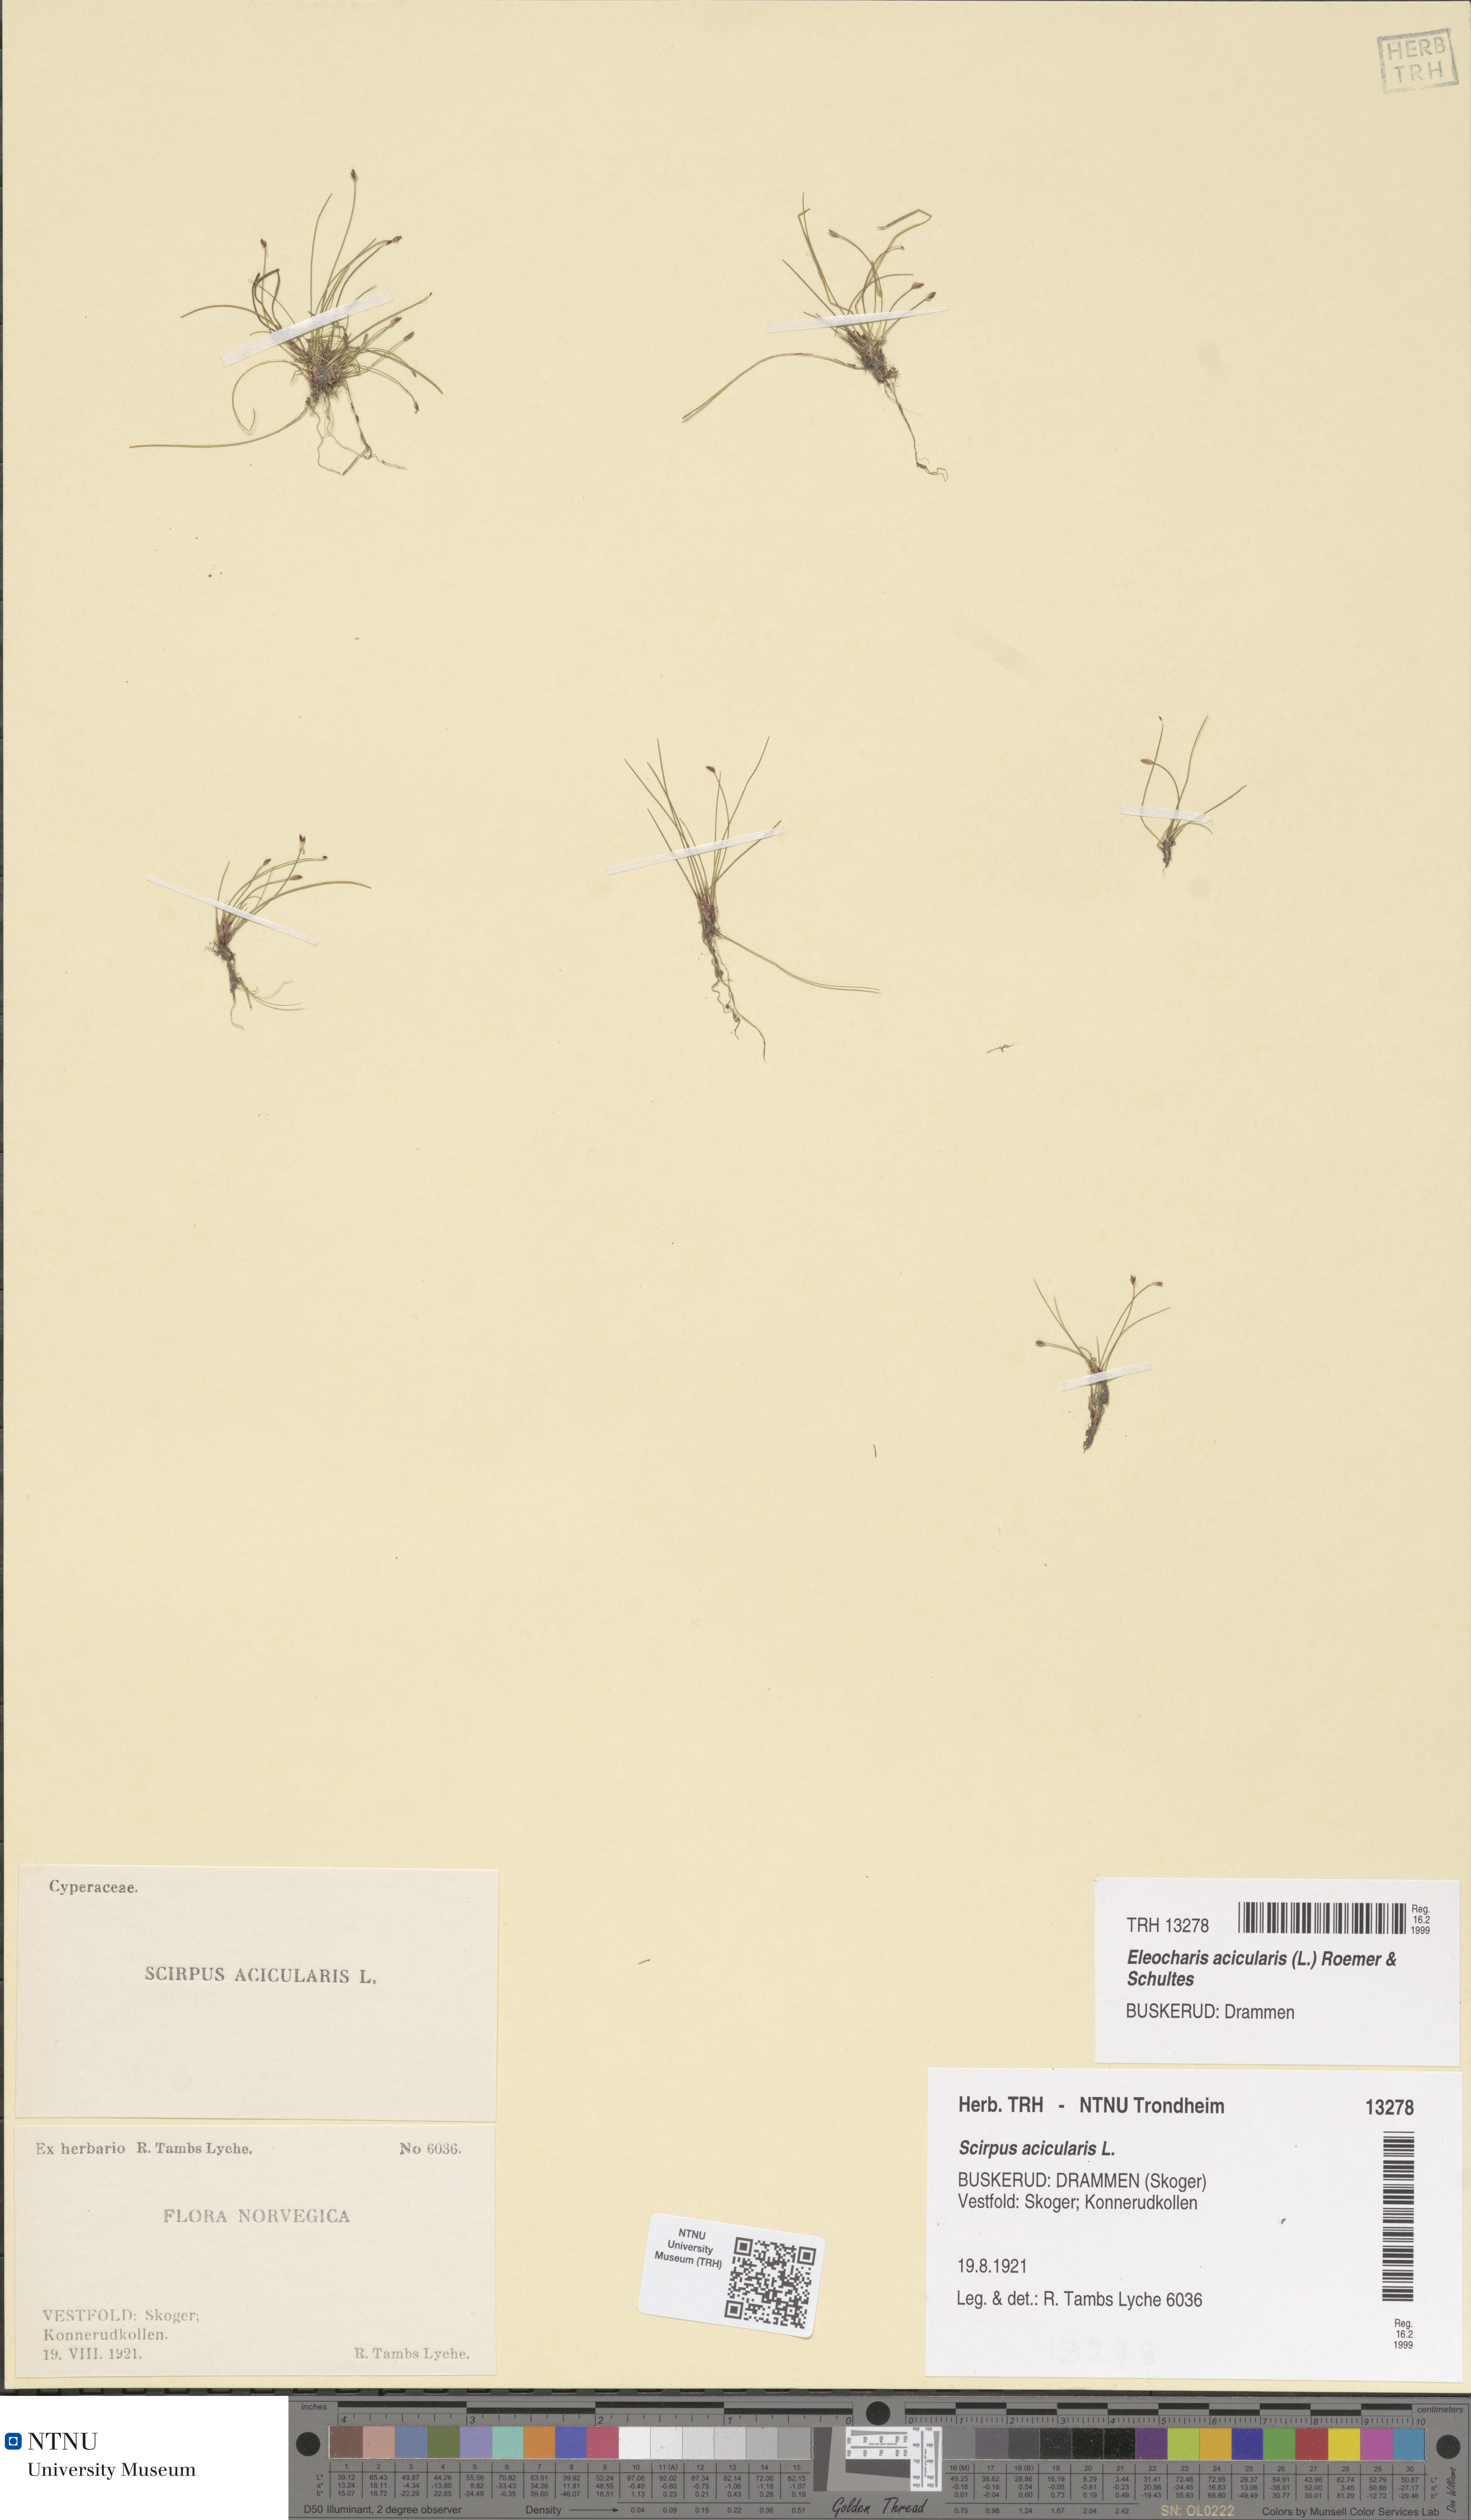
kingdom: Plantae
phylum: Tracheophyta
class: Liliopsida
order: Poales
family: Cyperaceae
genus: Eleocharis
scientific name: Eleocharis acicularis
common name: Needle spike-rush
